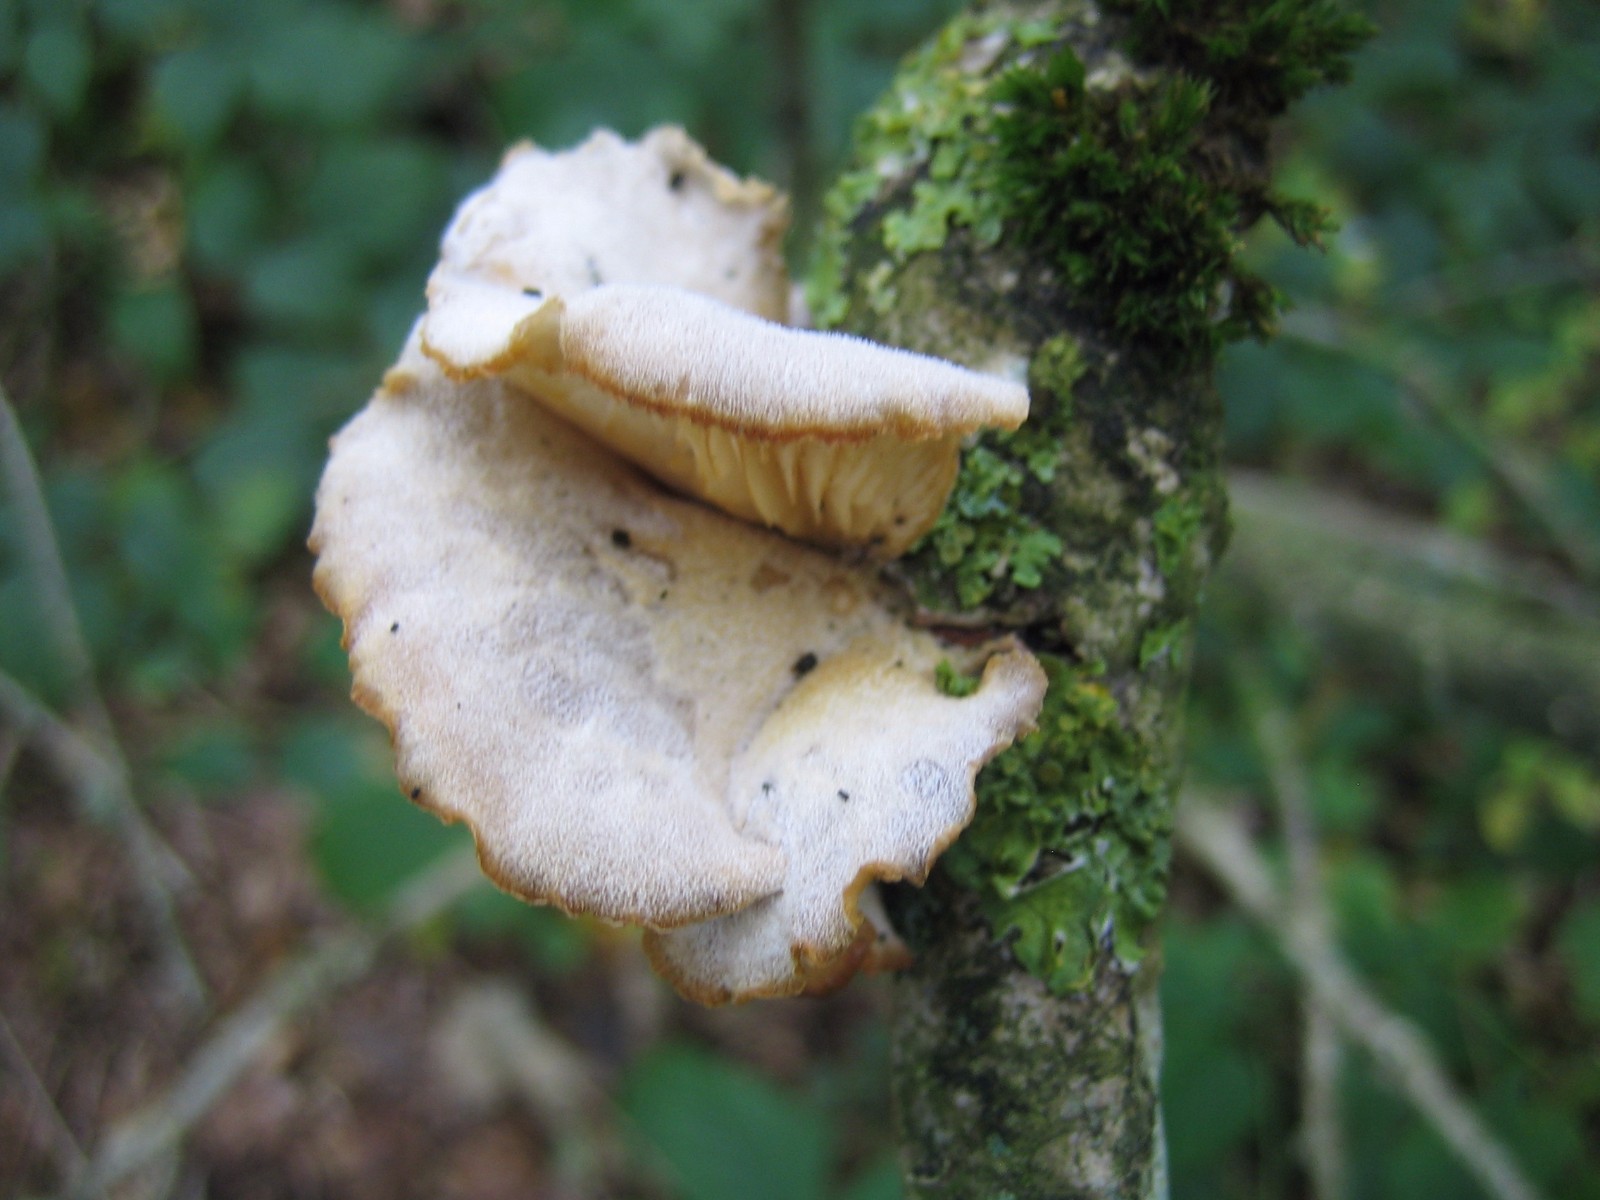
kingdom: Fungi
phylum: Basidiomycota
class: Agaricomycetes
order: Agaricales
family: Pleurotaceae
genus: Hohenbuehelia
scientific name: Hohenbuehelia
